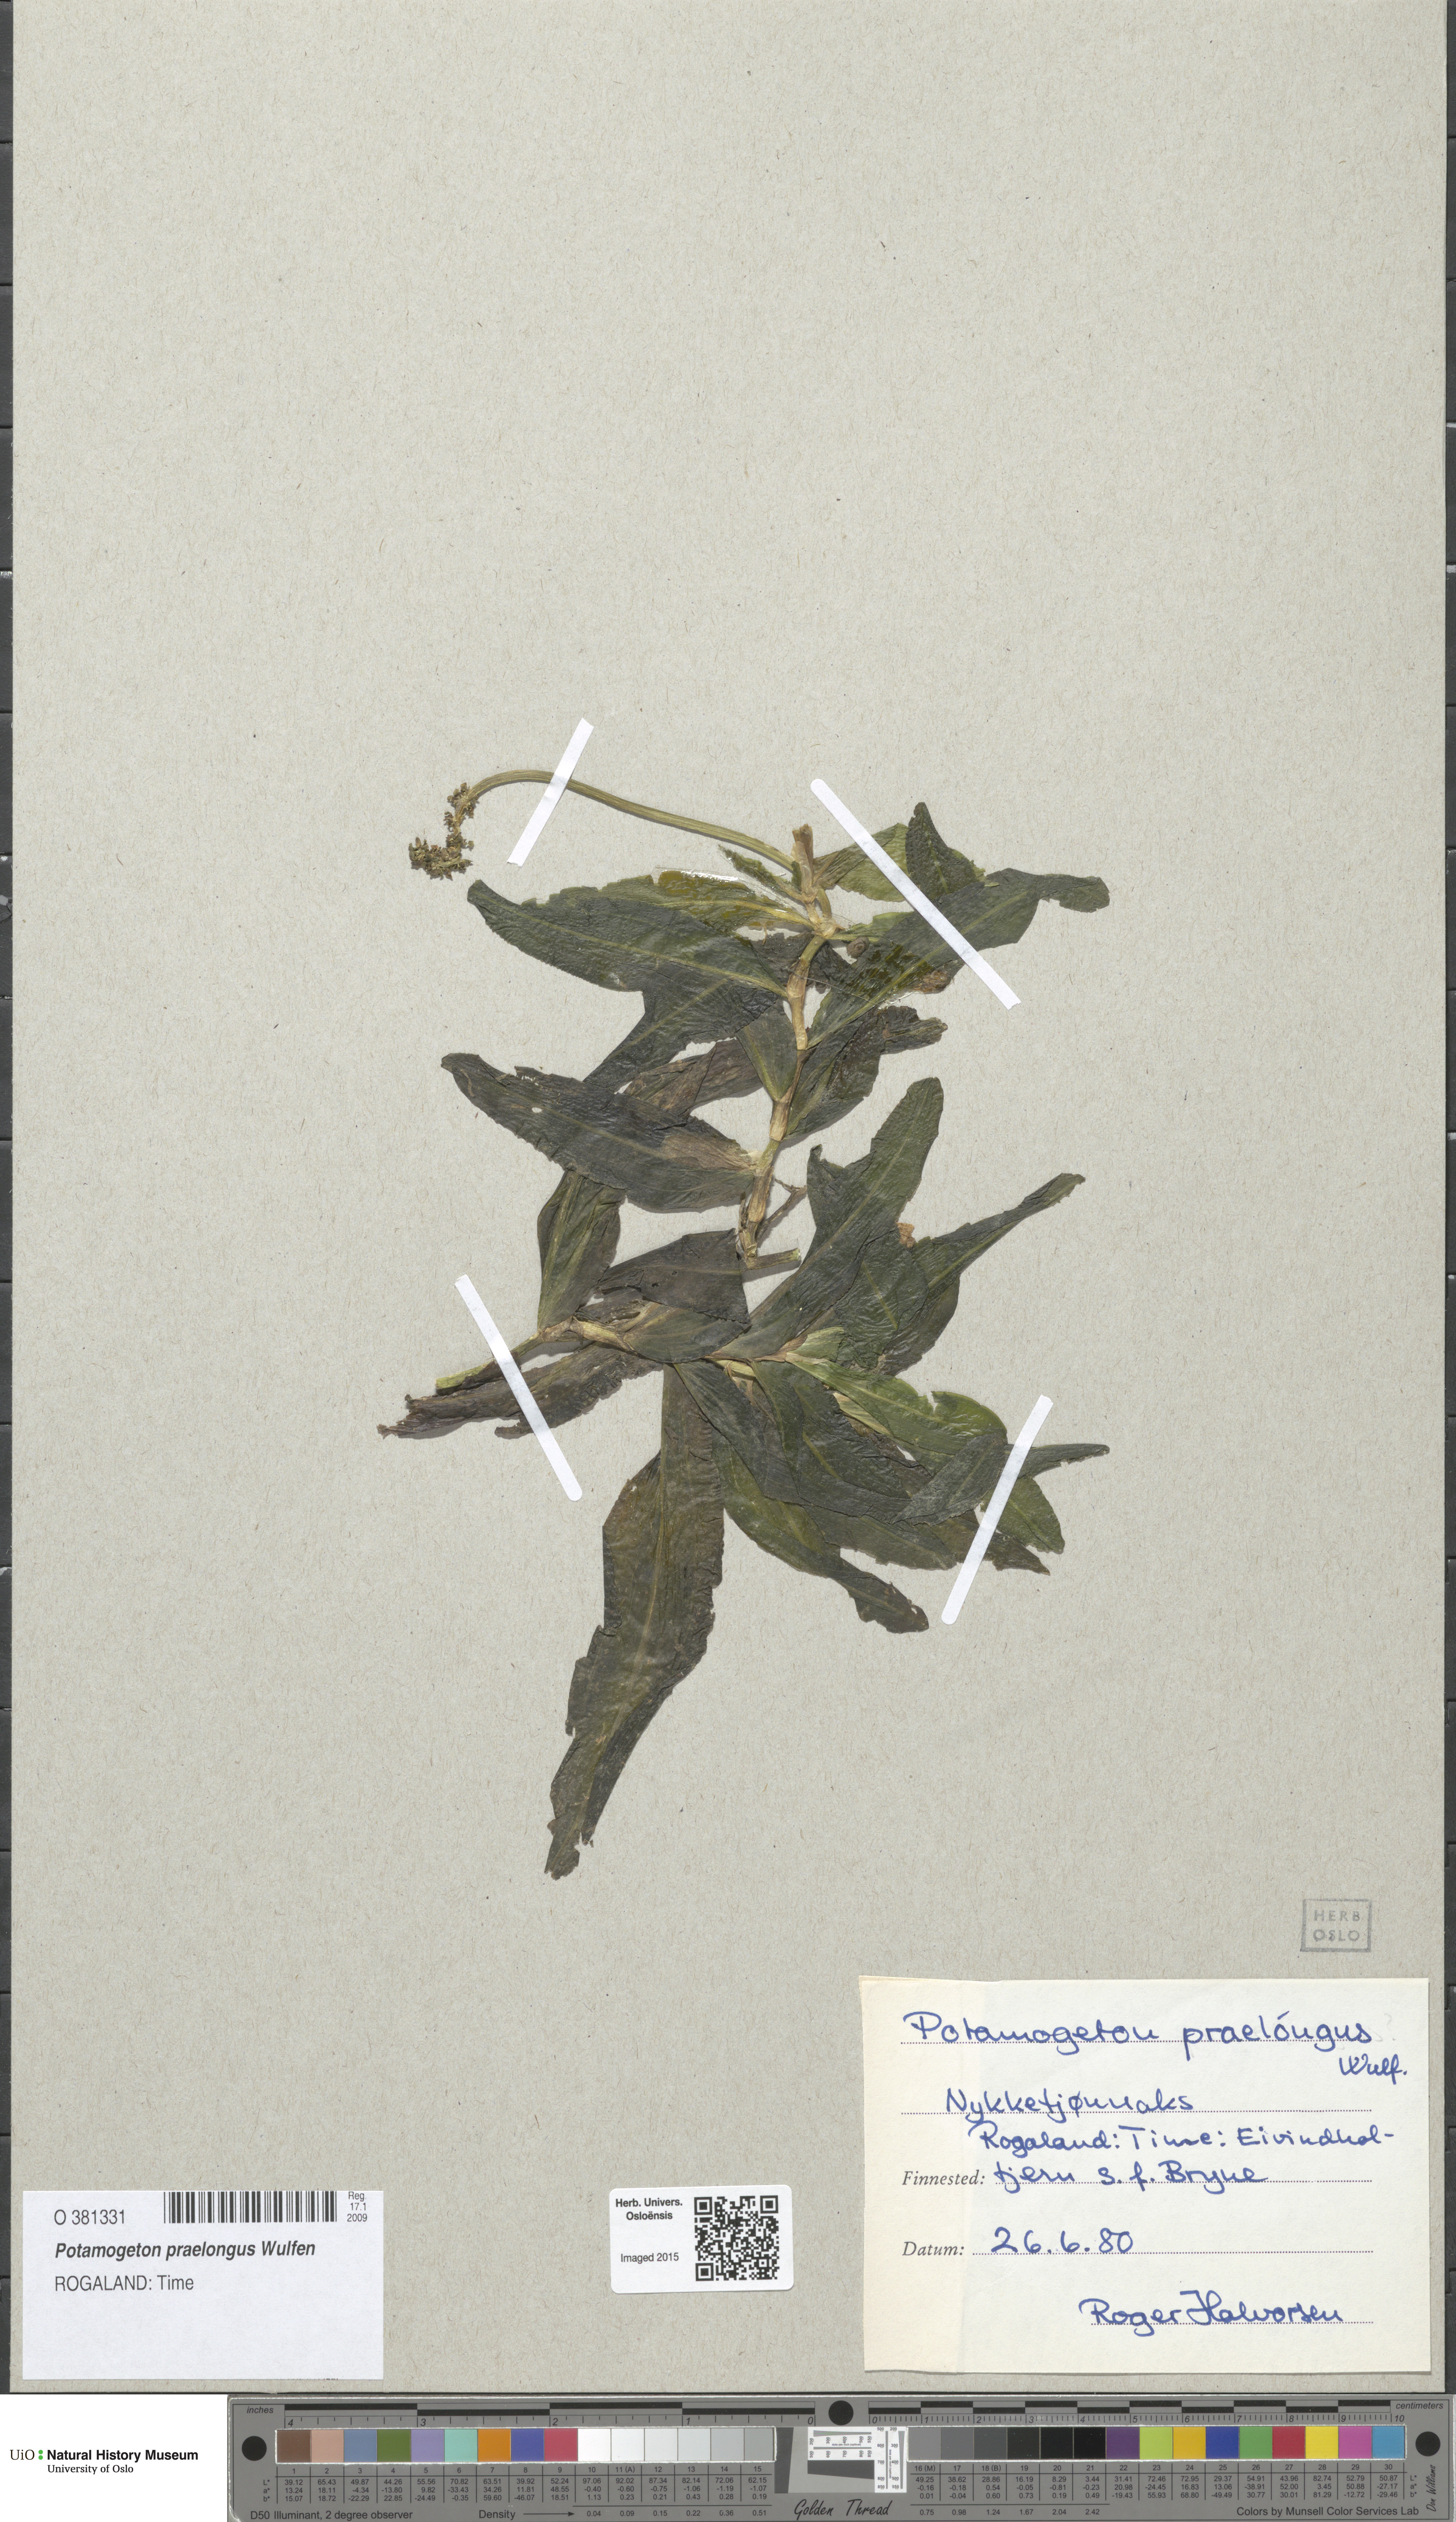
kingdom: Plantae
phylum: Tracheophyta
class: Liliopsida
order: Alismatales
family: Potamogetonaceae
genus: Potamogeton
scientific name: Potamogeton praelongus
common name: Long-stalked pondweed
